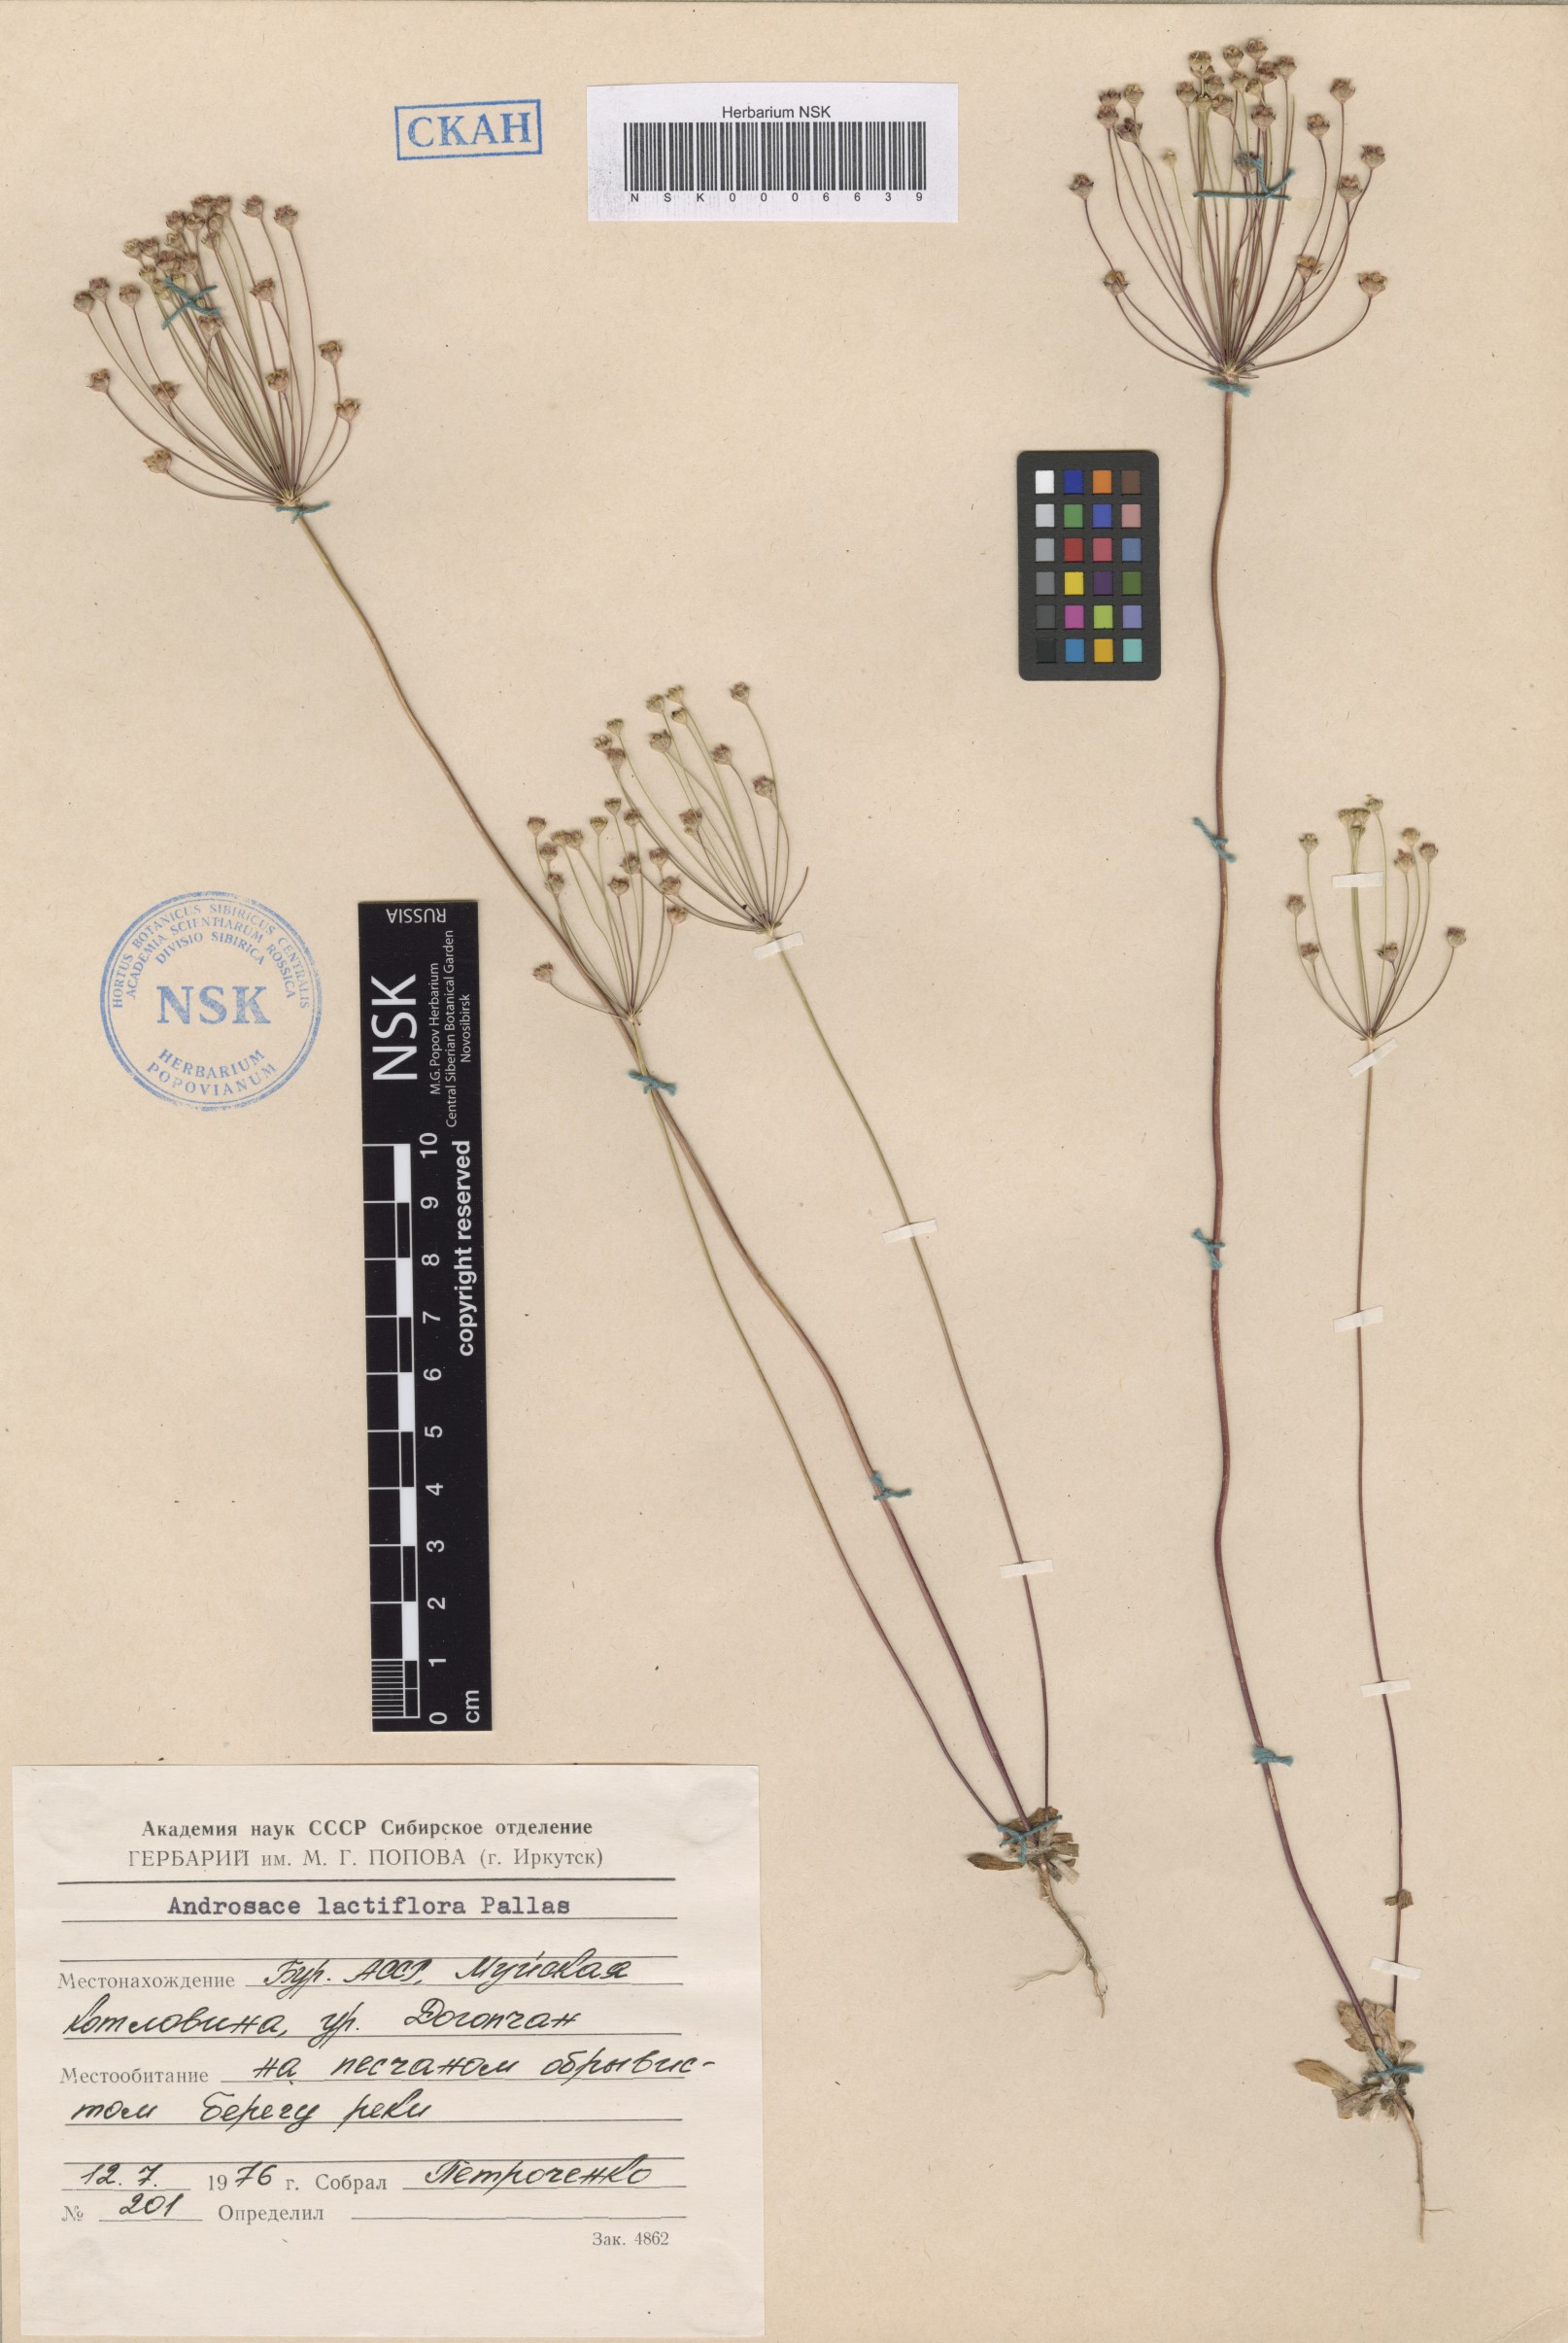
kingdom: Plantae
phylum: Tracheophyta
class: Magnoliopsida
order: Ericales
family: Primulaceae
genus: Androsace
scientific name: Androsace lactiflora
